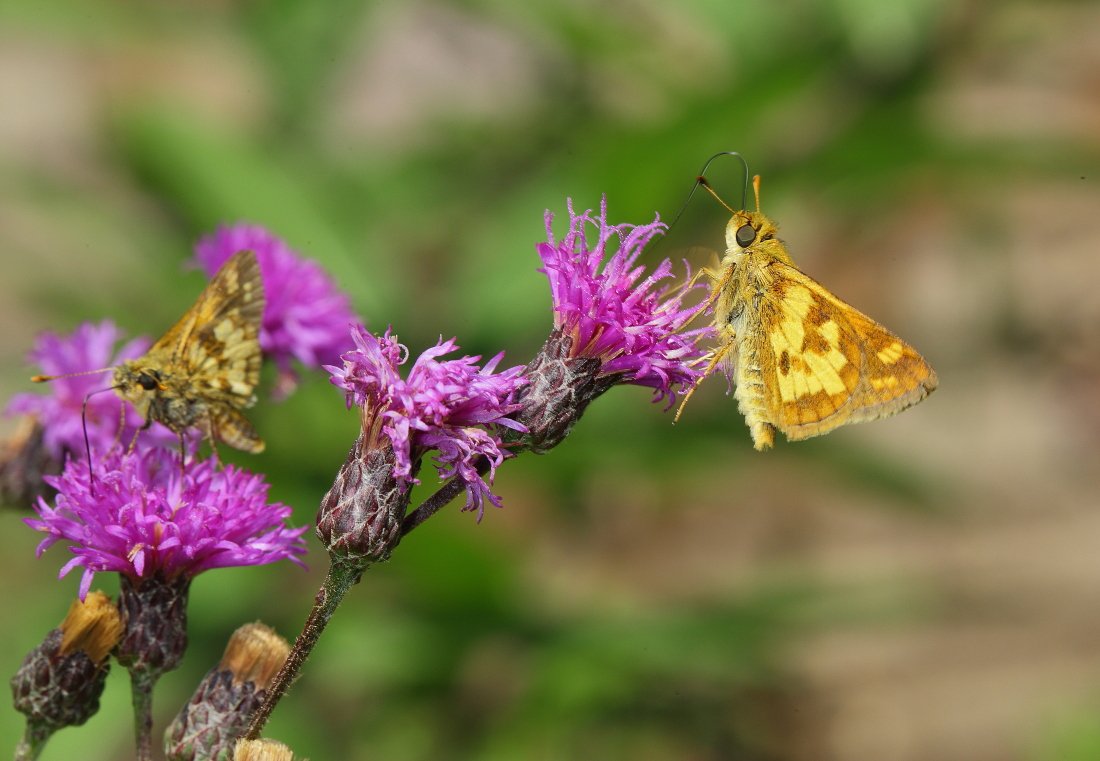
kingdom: Animalia
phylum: Arthropoda
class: Insecta
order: Lepidoptera
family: Hesperiidae
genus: Polites
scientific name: Polites coras
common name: Peck's Skipper
